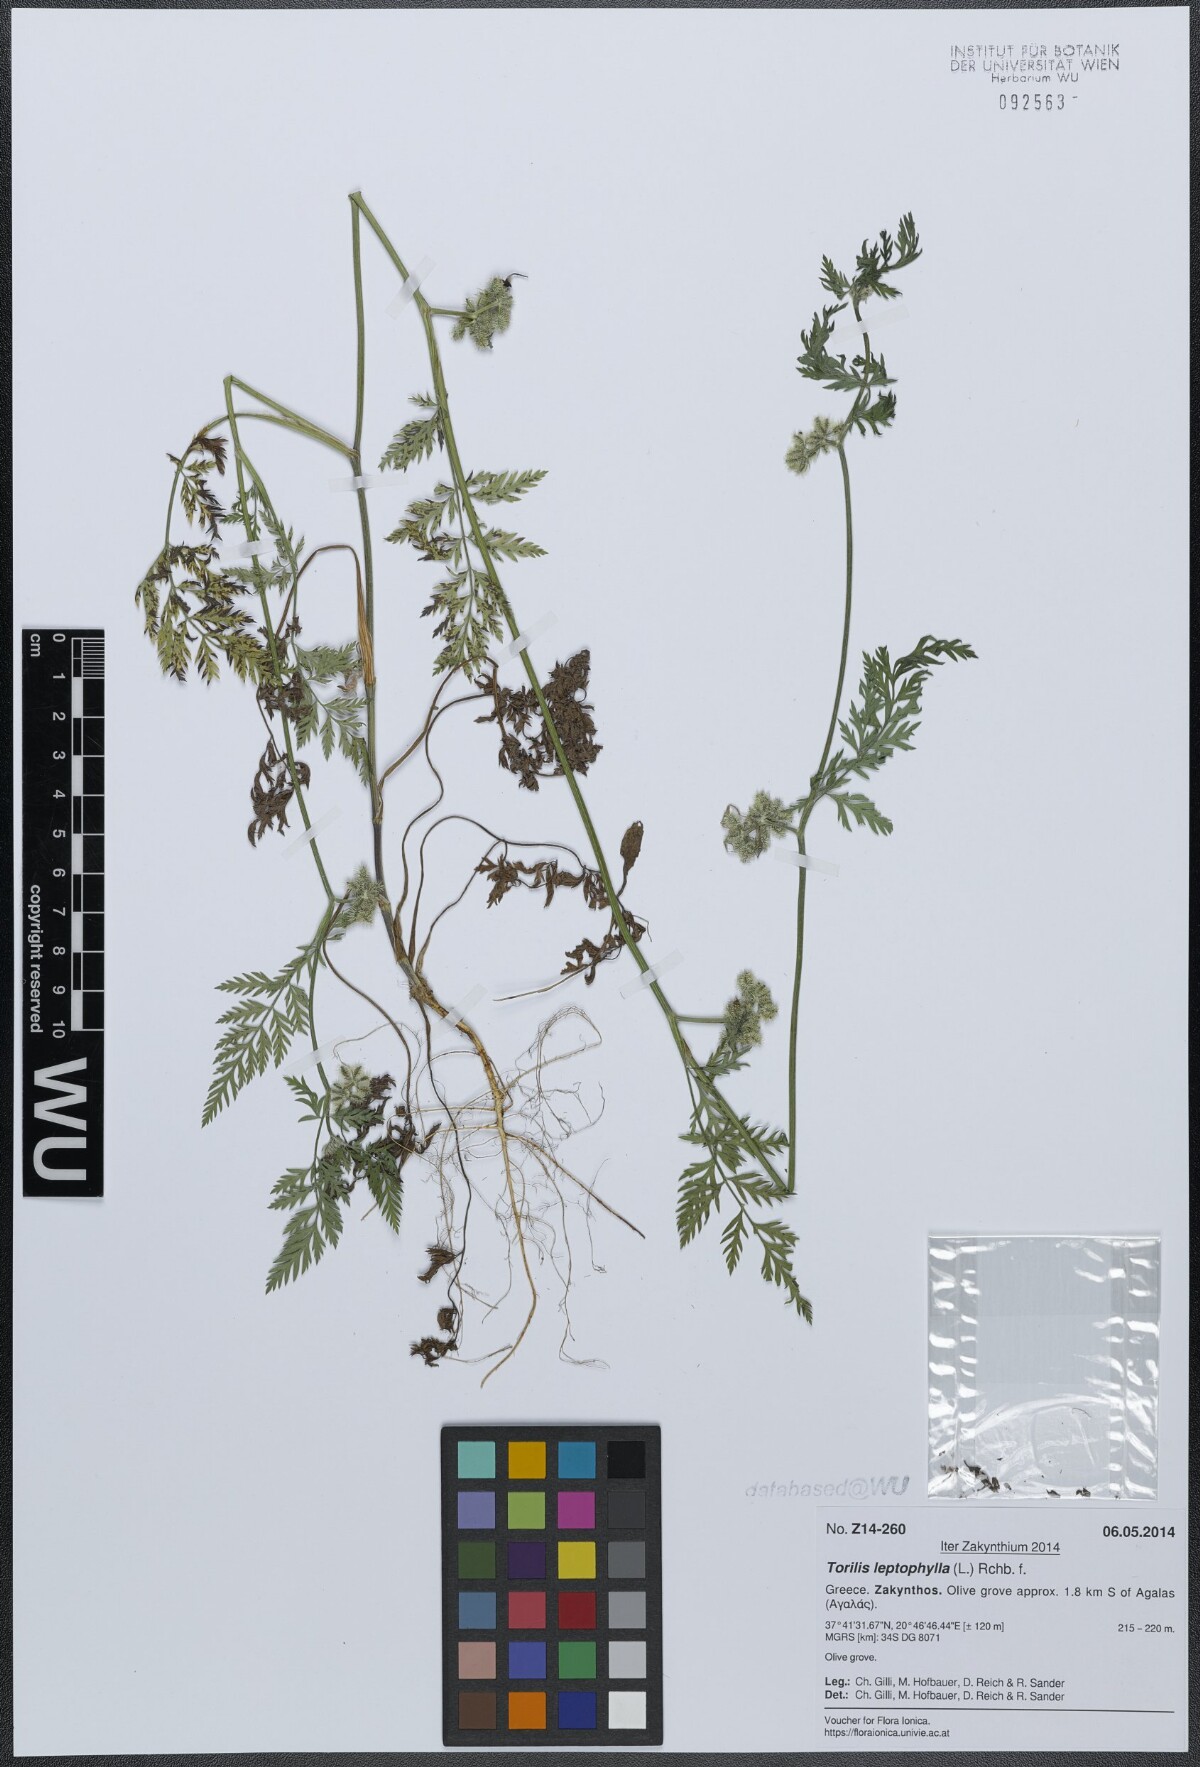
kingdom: Plantae
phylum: Tracheophyta
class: Magnoliopsida
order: Apiales
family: Apiaceae
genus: Torilis
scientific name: Torilis leptophylla
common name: Bristlefruit hedgeparsley
